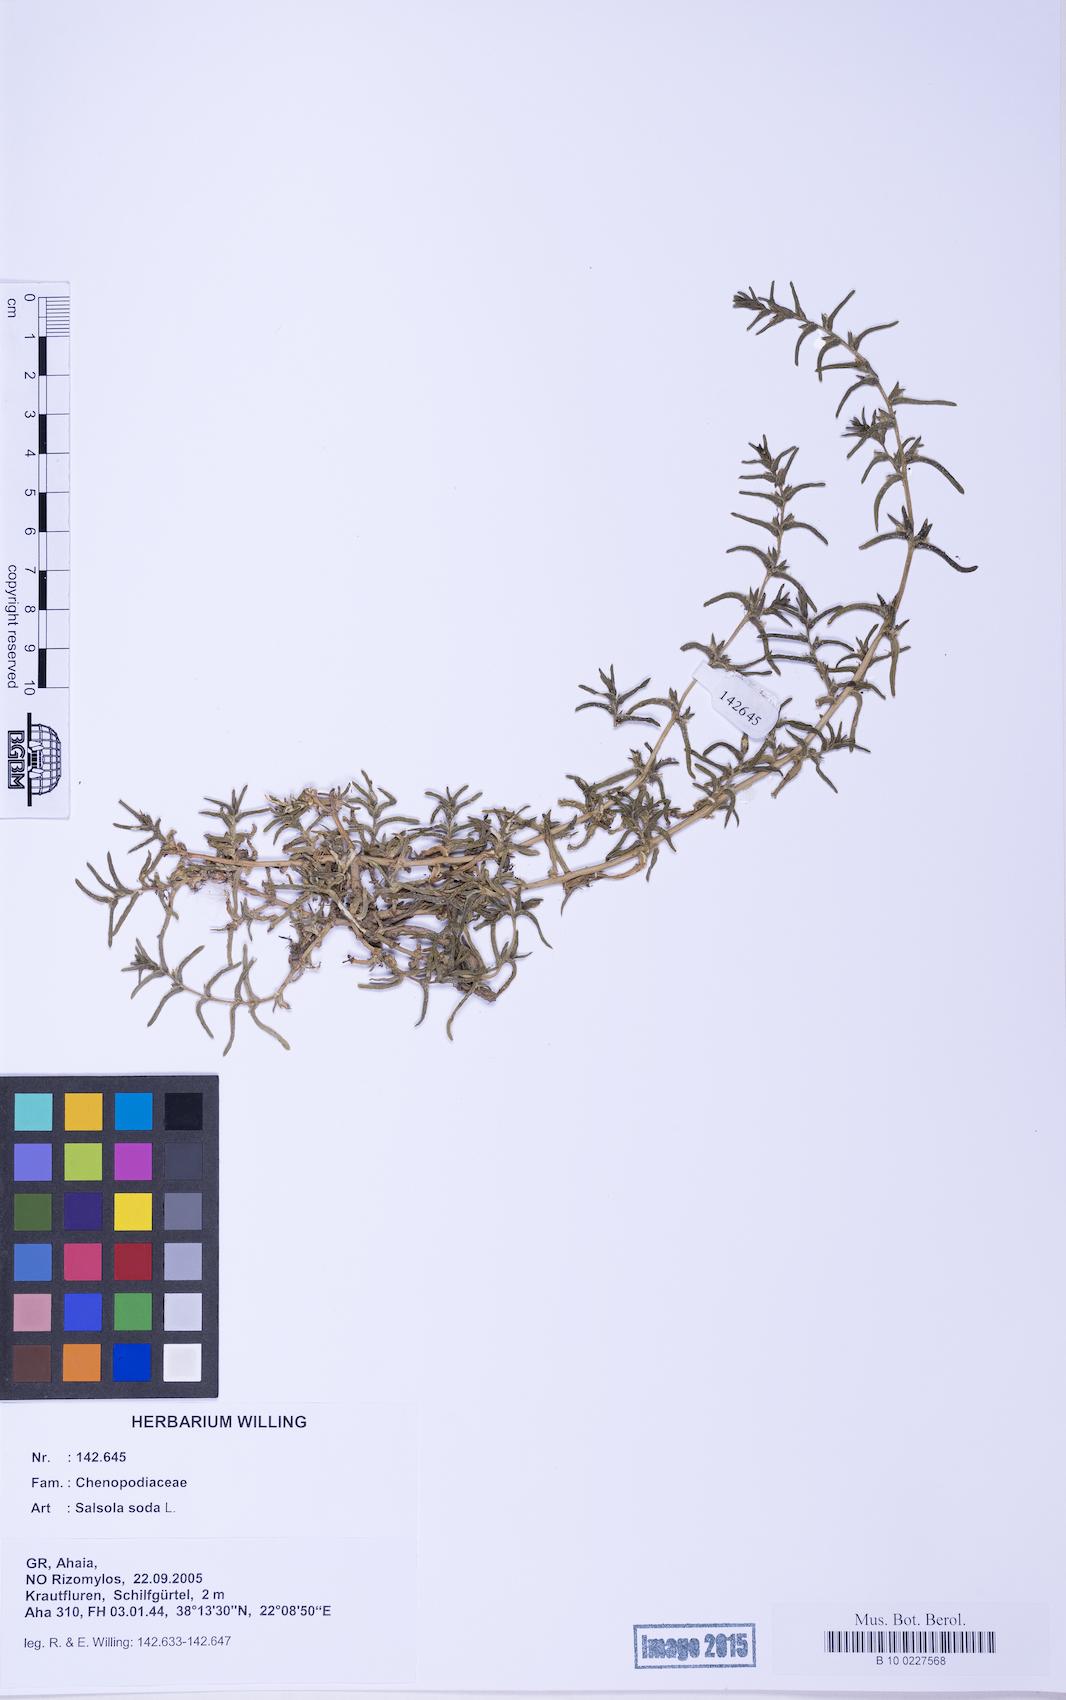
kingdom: Plantae
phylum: Tracheophyta
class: Magnoliopsida
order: Caryophyllales
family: Amaranthaceae
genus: Soda
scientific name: Soda inermis
